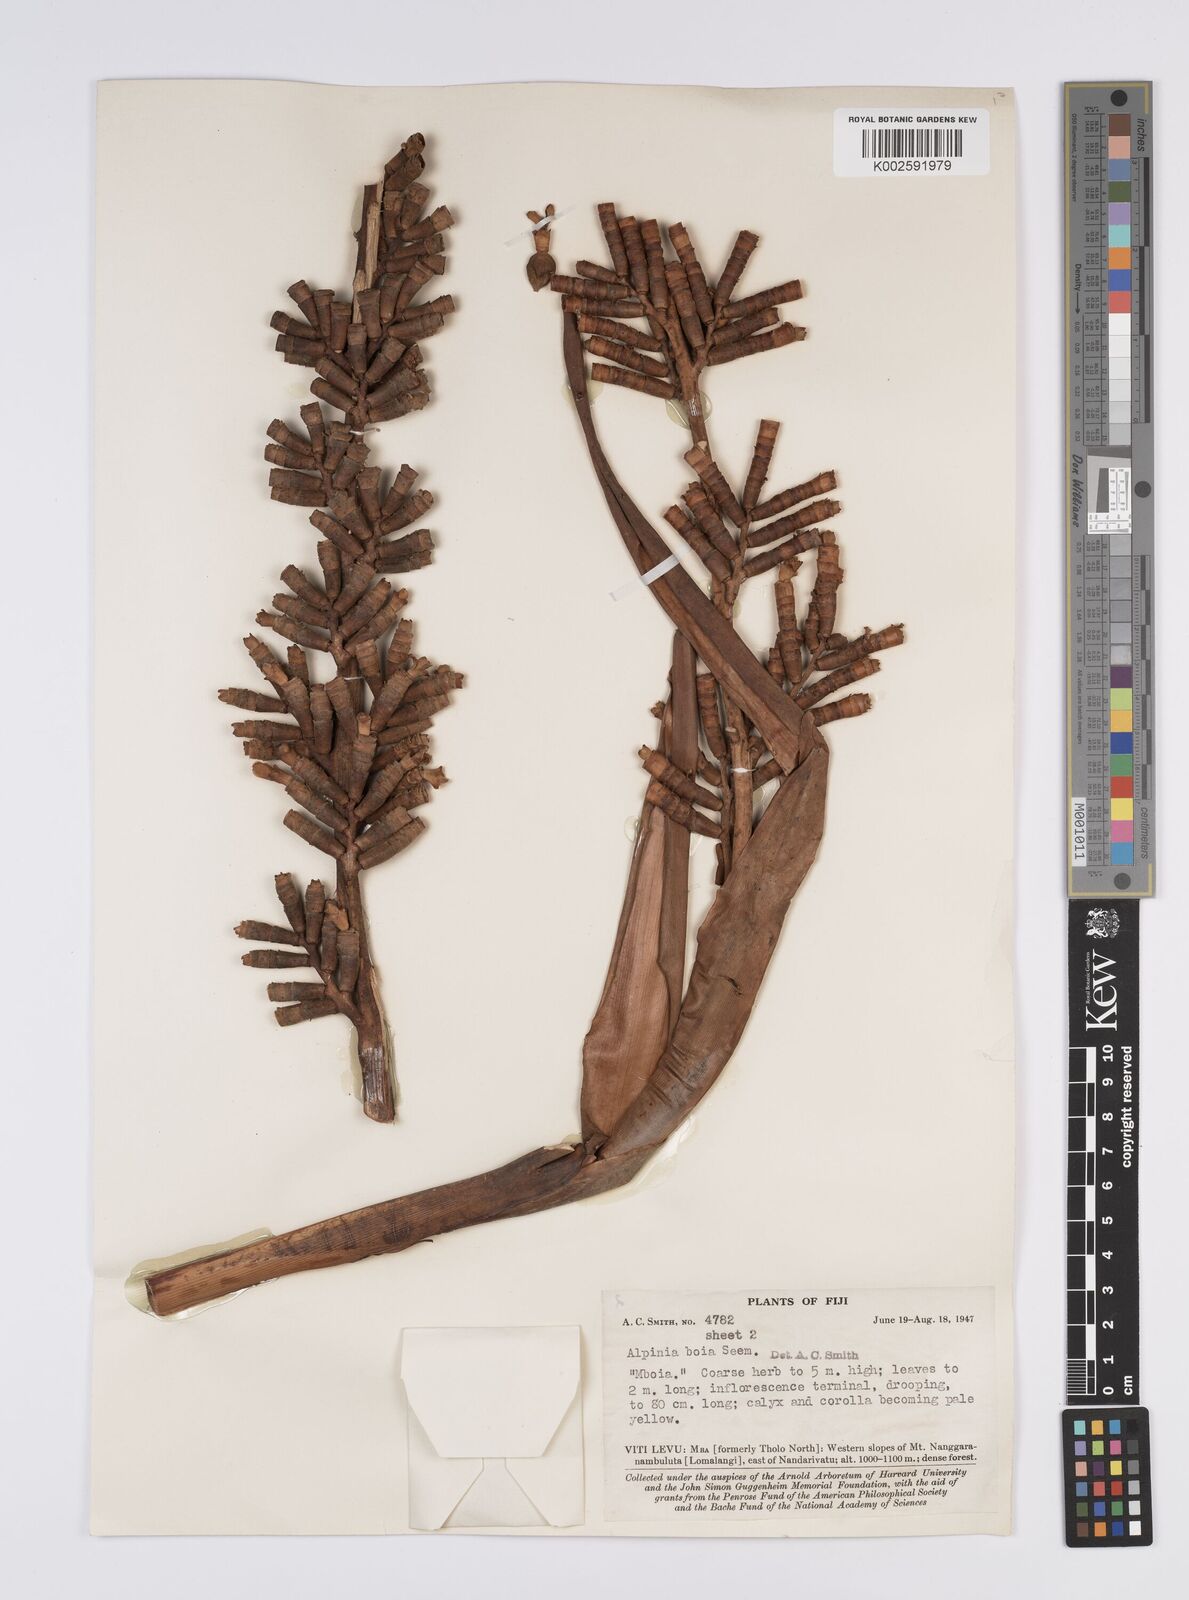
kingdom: Plantae
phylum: Tracheophyta
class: Liliopsida
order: Zingiberales
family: Zingiberaceae
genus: Alpinia
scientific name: Alpinia boia
